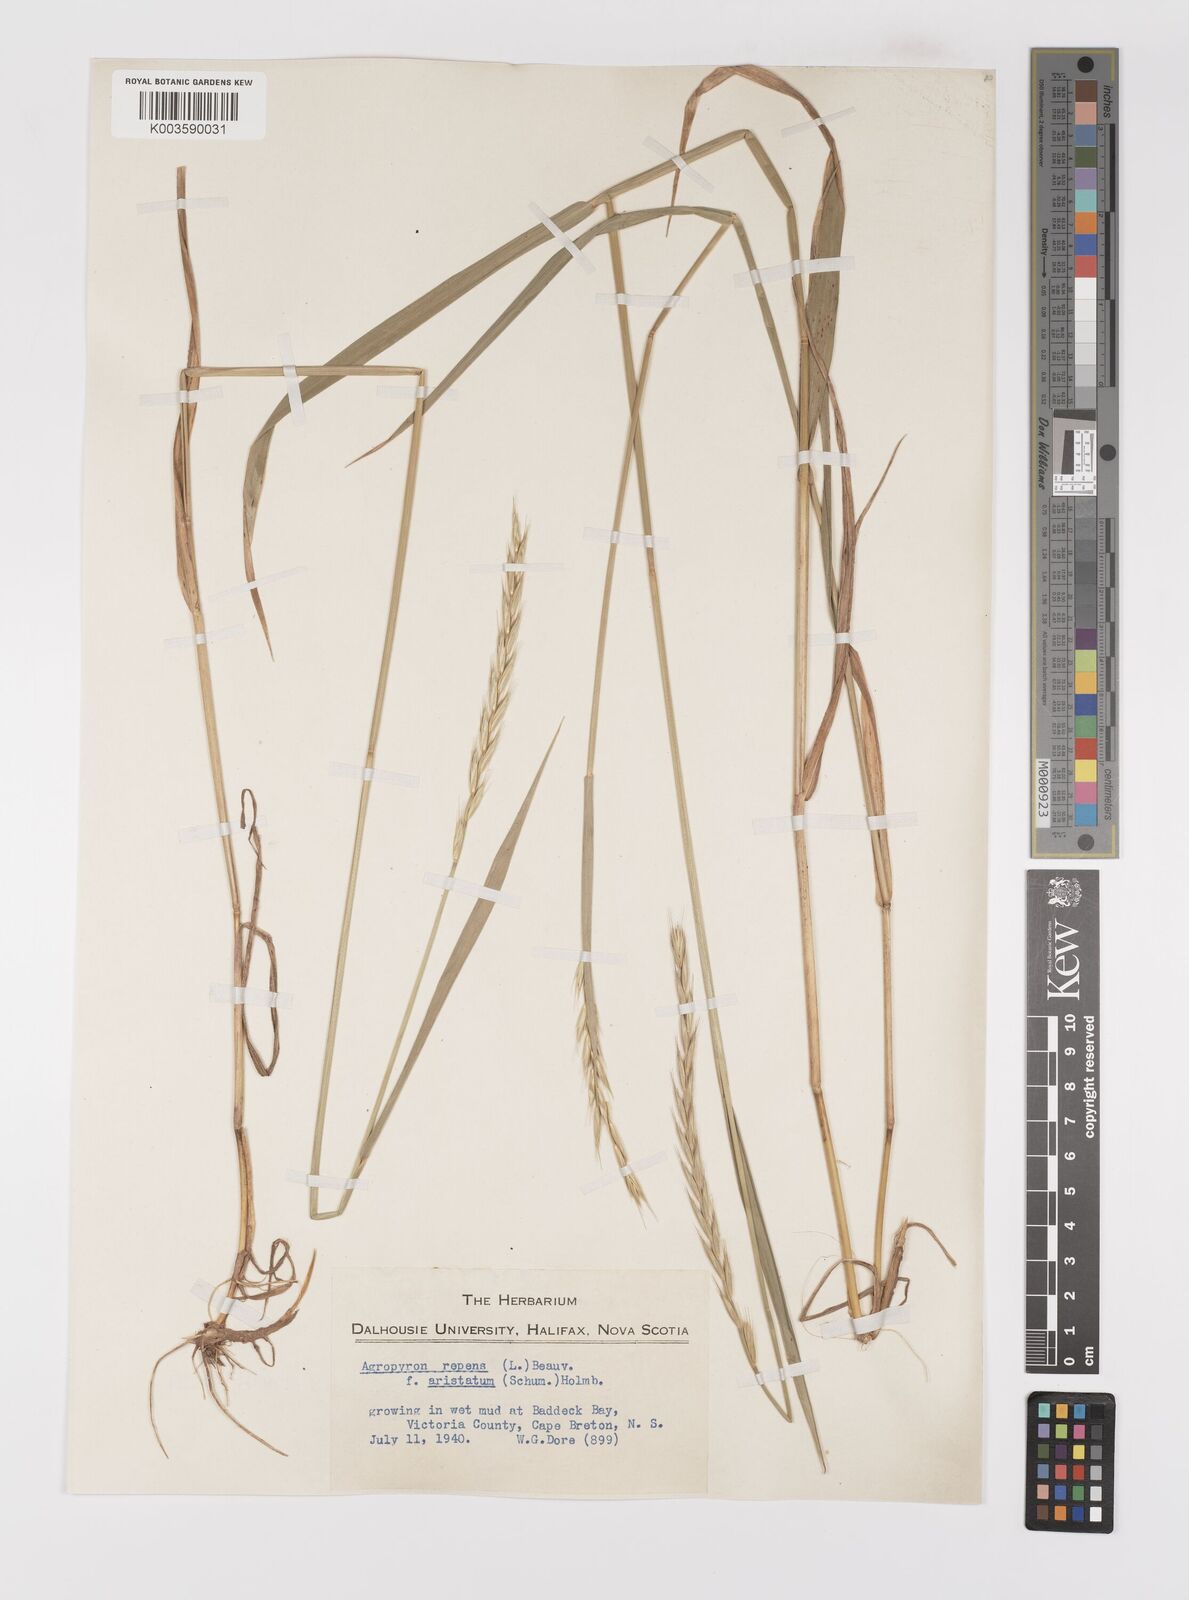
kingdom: Plantae
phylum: Tracheophyta
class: Liliopsida
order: Poales
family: Poaceae
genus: Elymus
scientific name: Elymus repens
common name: Quackgrass
